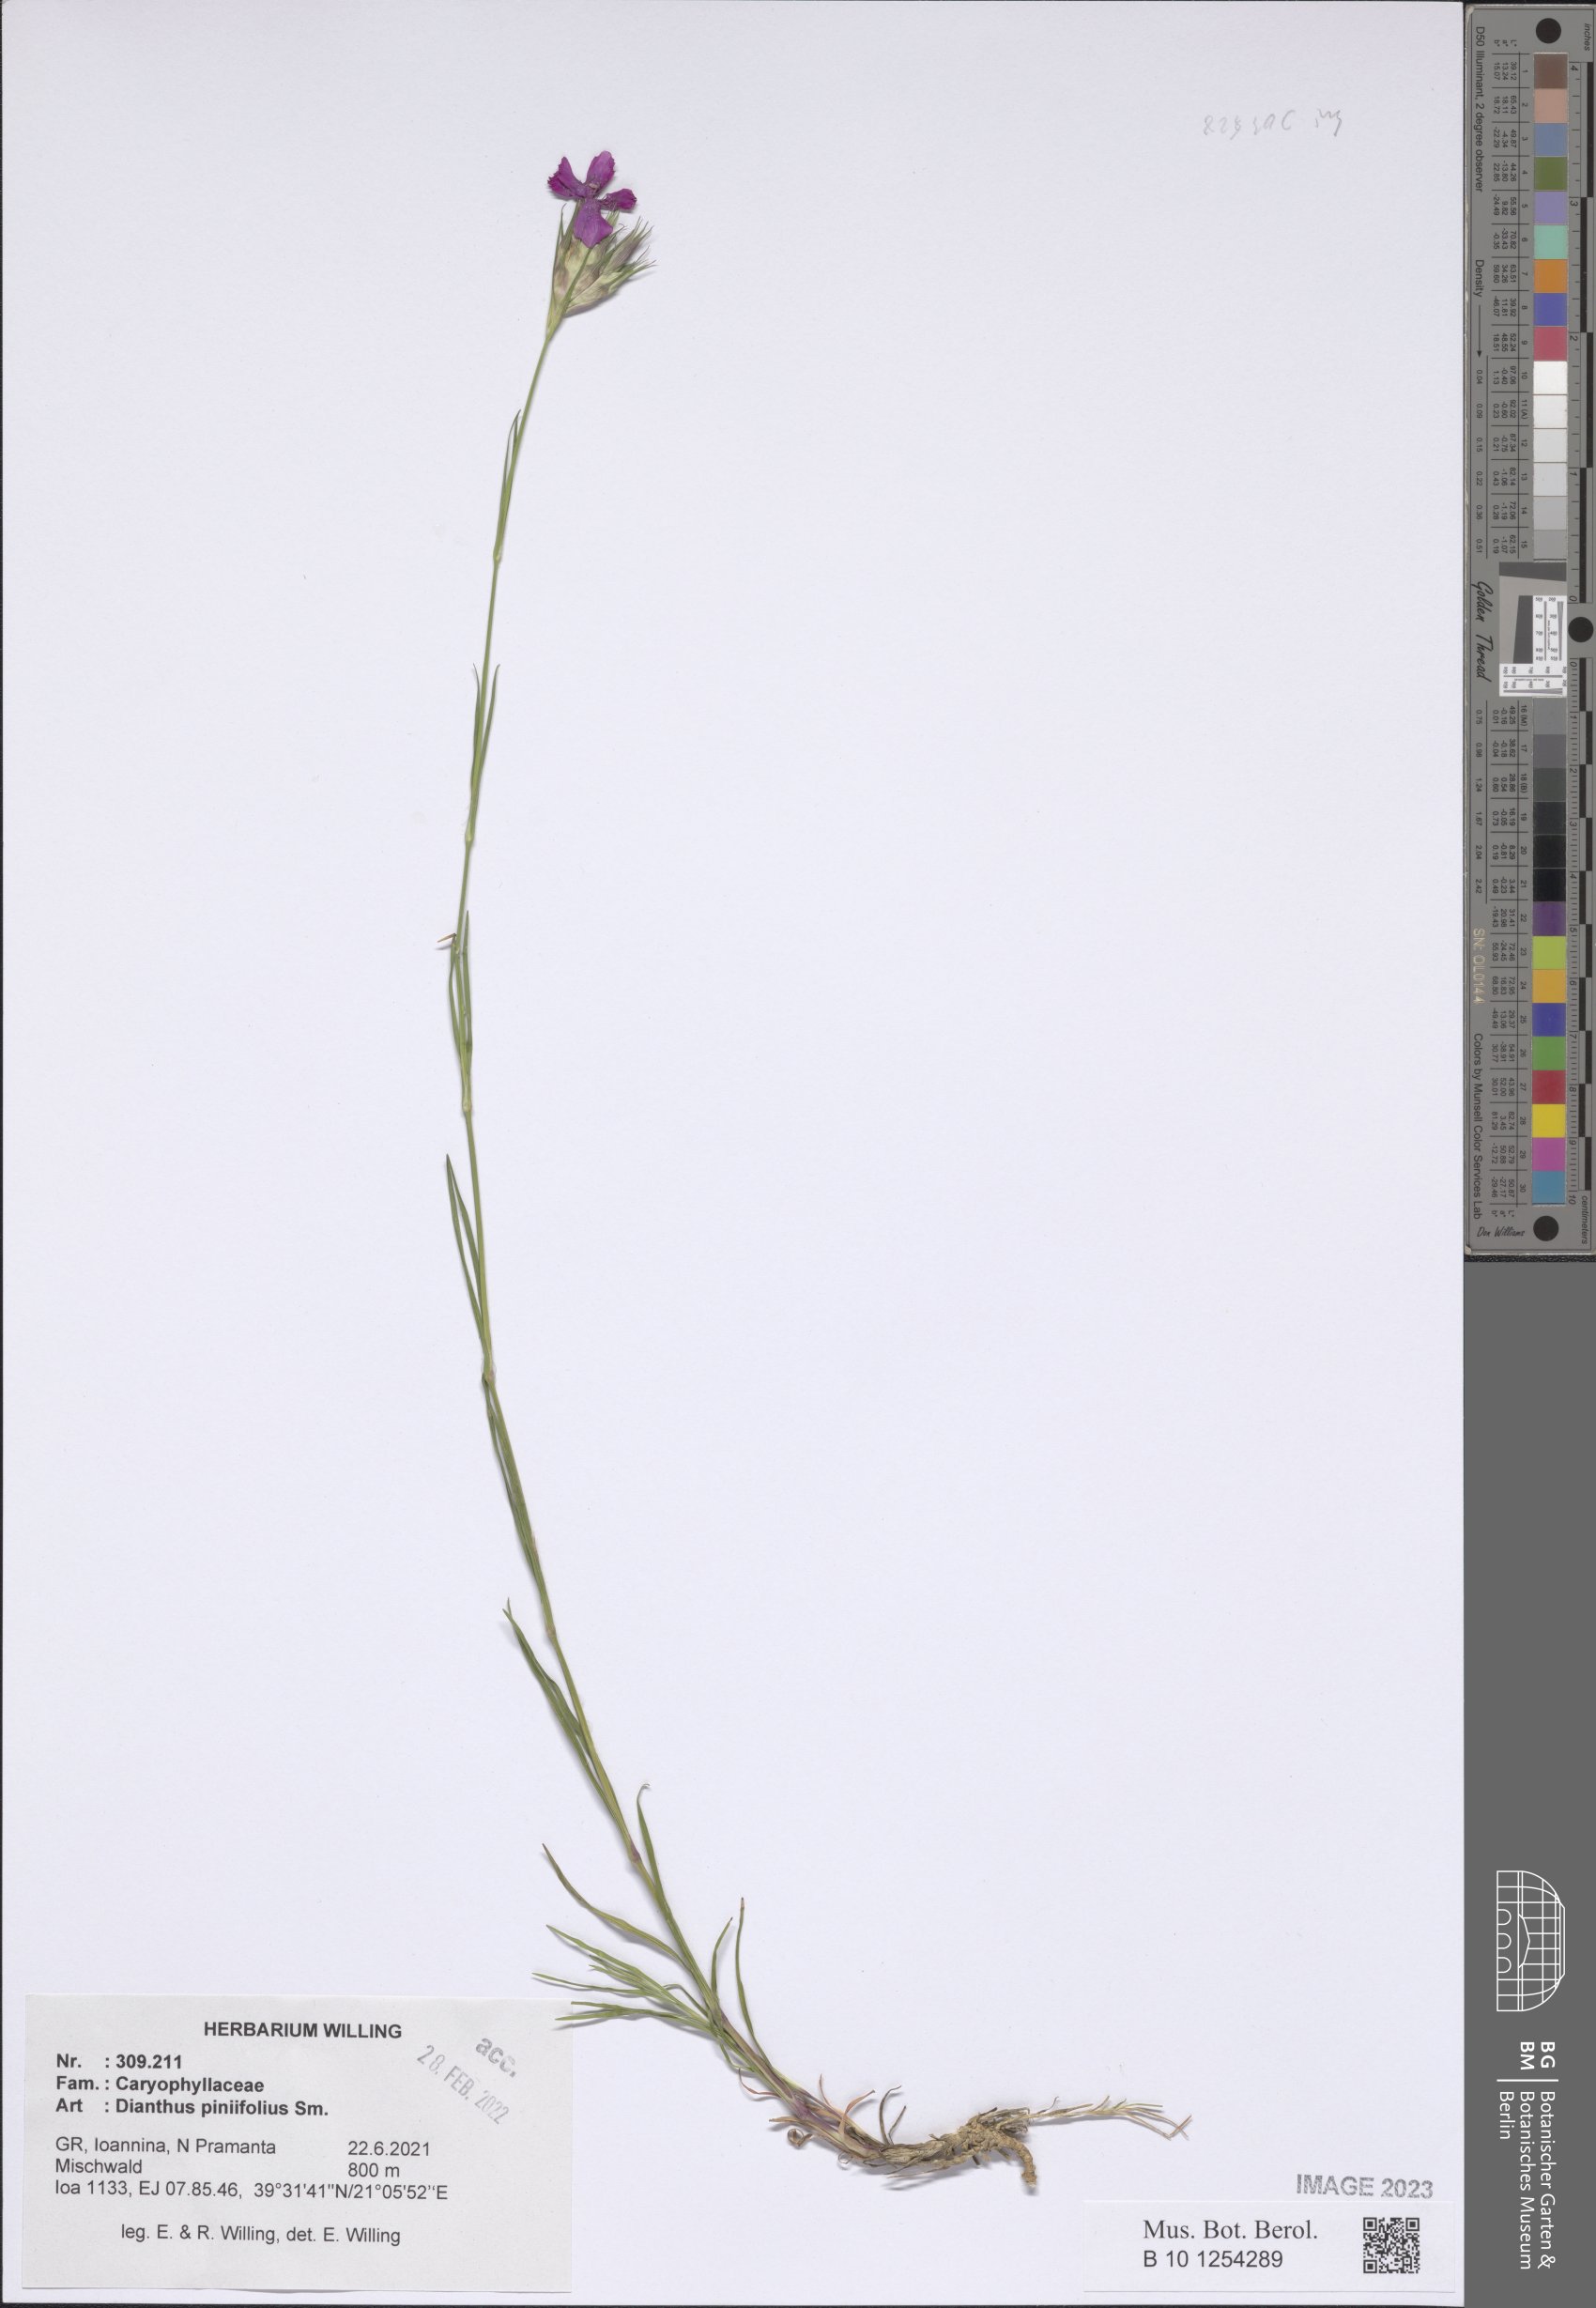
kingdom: Plantae
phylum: Tracheophyta
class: Magnoliopsida
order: Caryophyllales
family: Caryophyllaceae
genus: Dianthus
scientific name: Dianthus pinifolius
